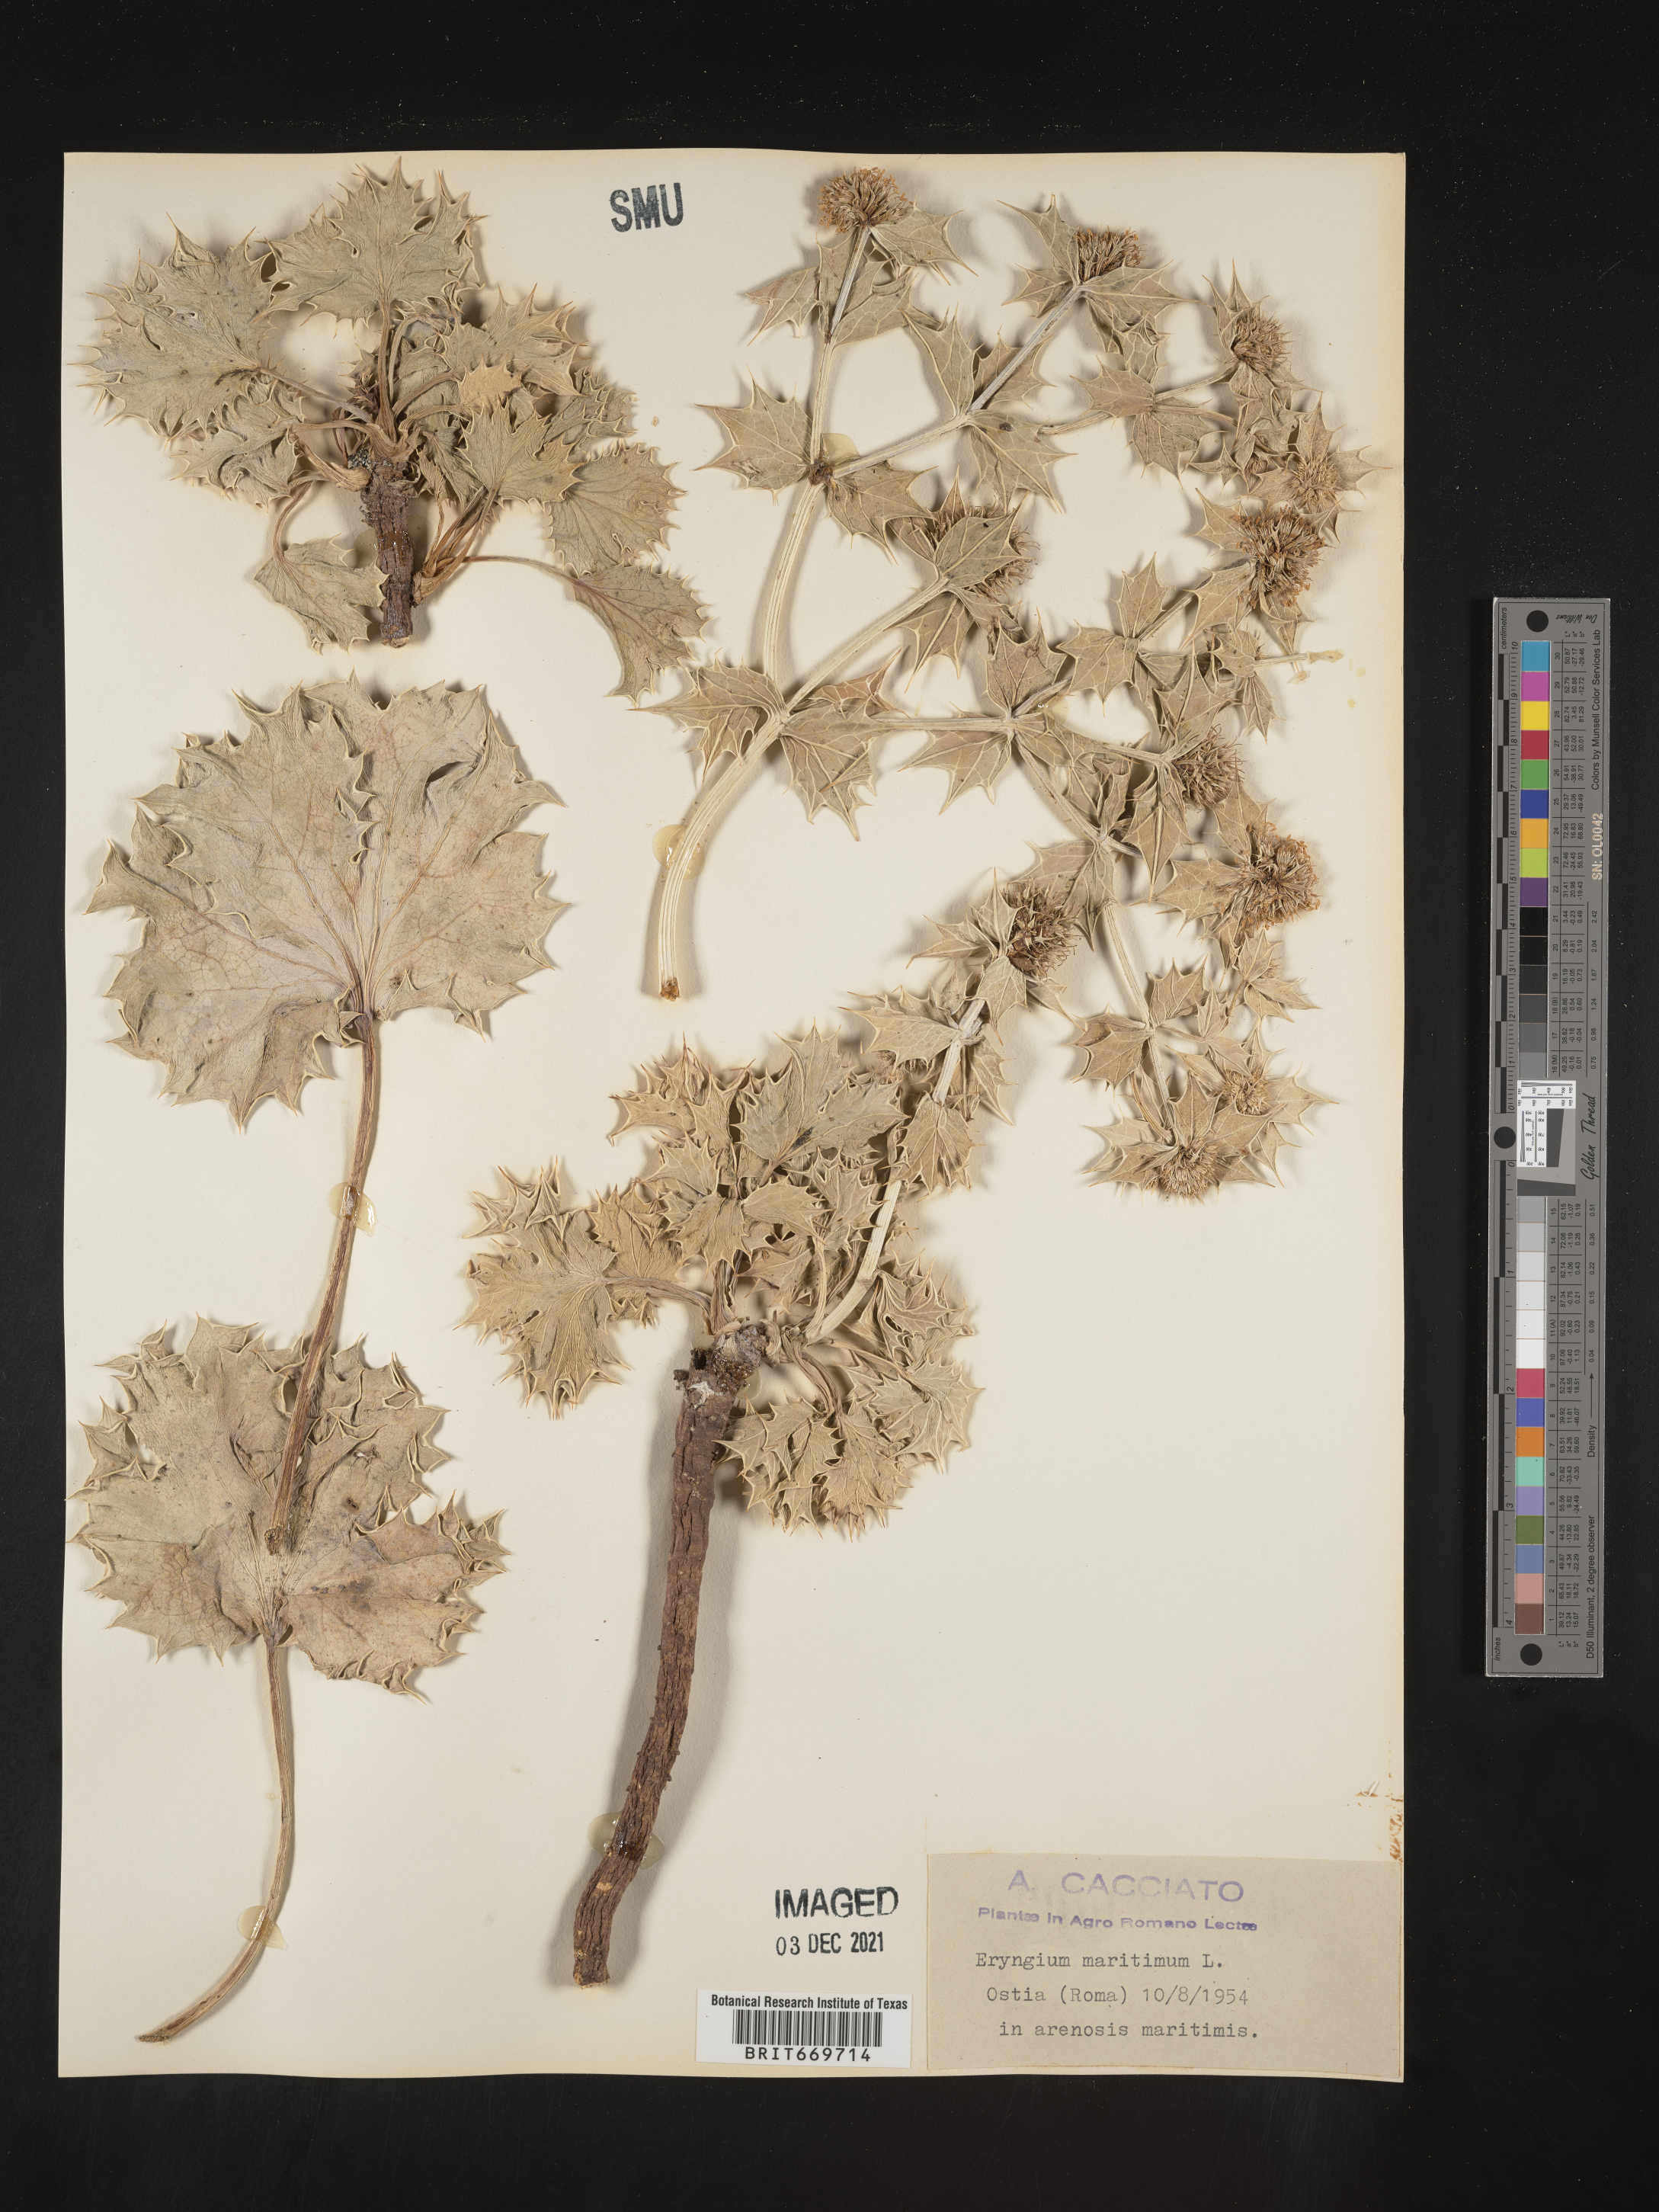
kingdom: Plantae
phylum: Tracheophyta
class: Magnoliopsida
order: Apiales
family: Apiaceae
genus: Eryngium
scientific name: Eryngium
